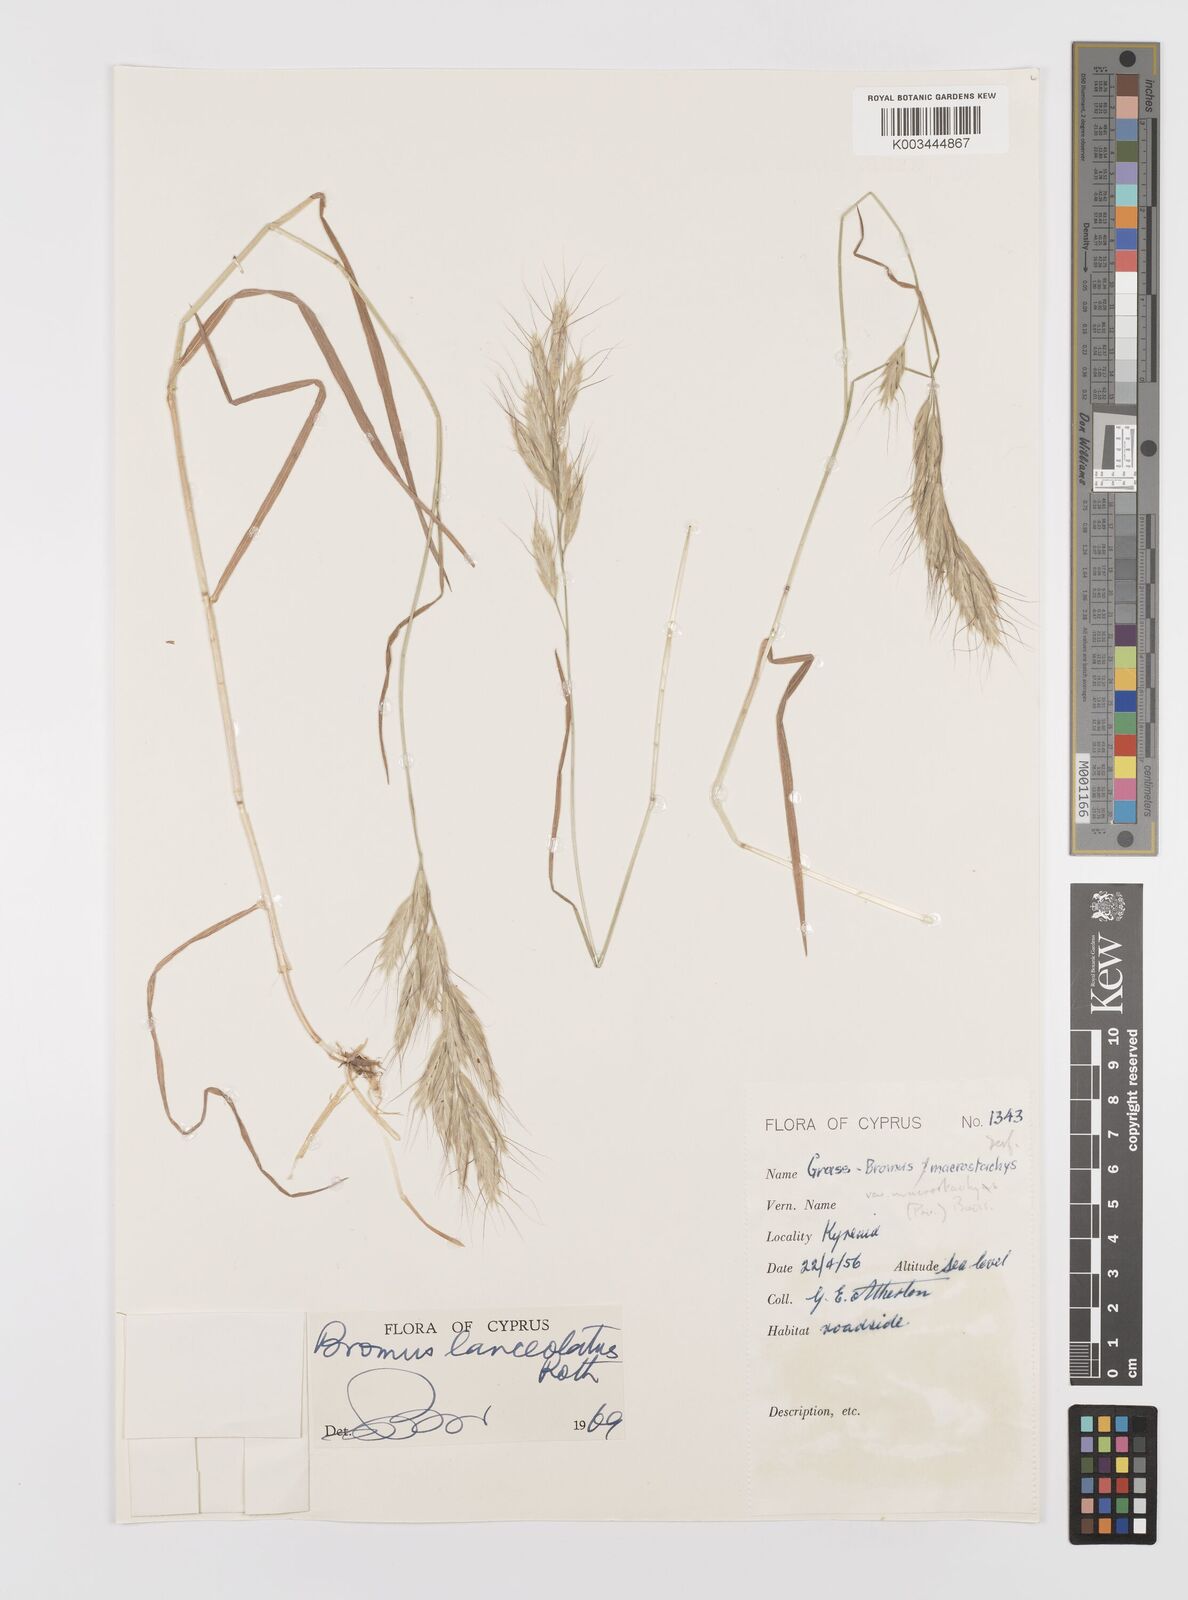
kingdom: Plantae
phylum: Tracheophyta
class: Liliopsida
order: Poales
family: Poaceae
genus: Bromus
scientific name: Bromus lanceolatus
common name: Mediterranean brome
